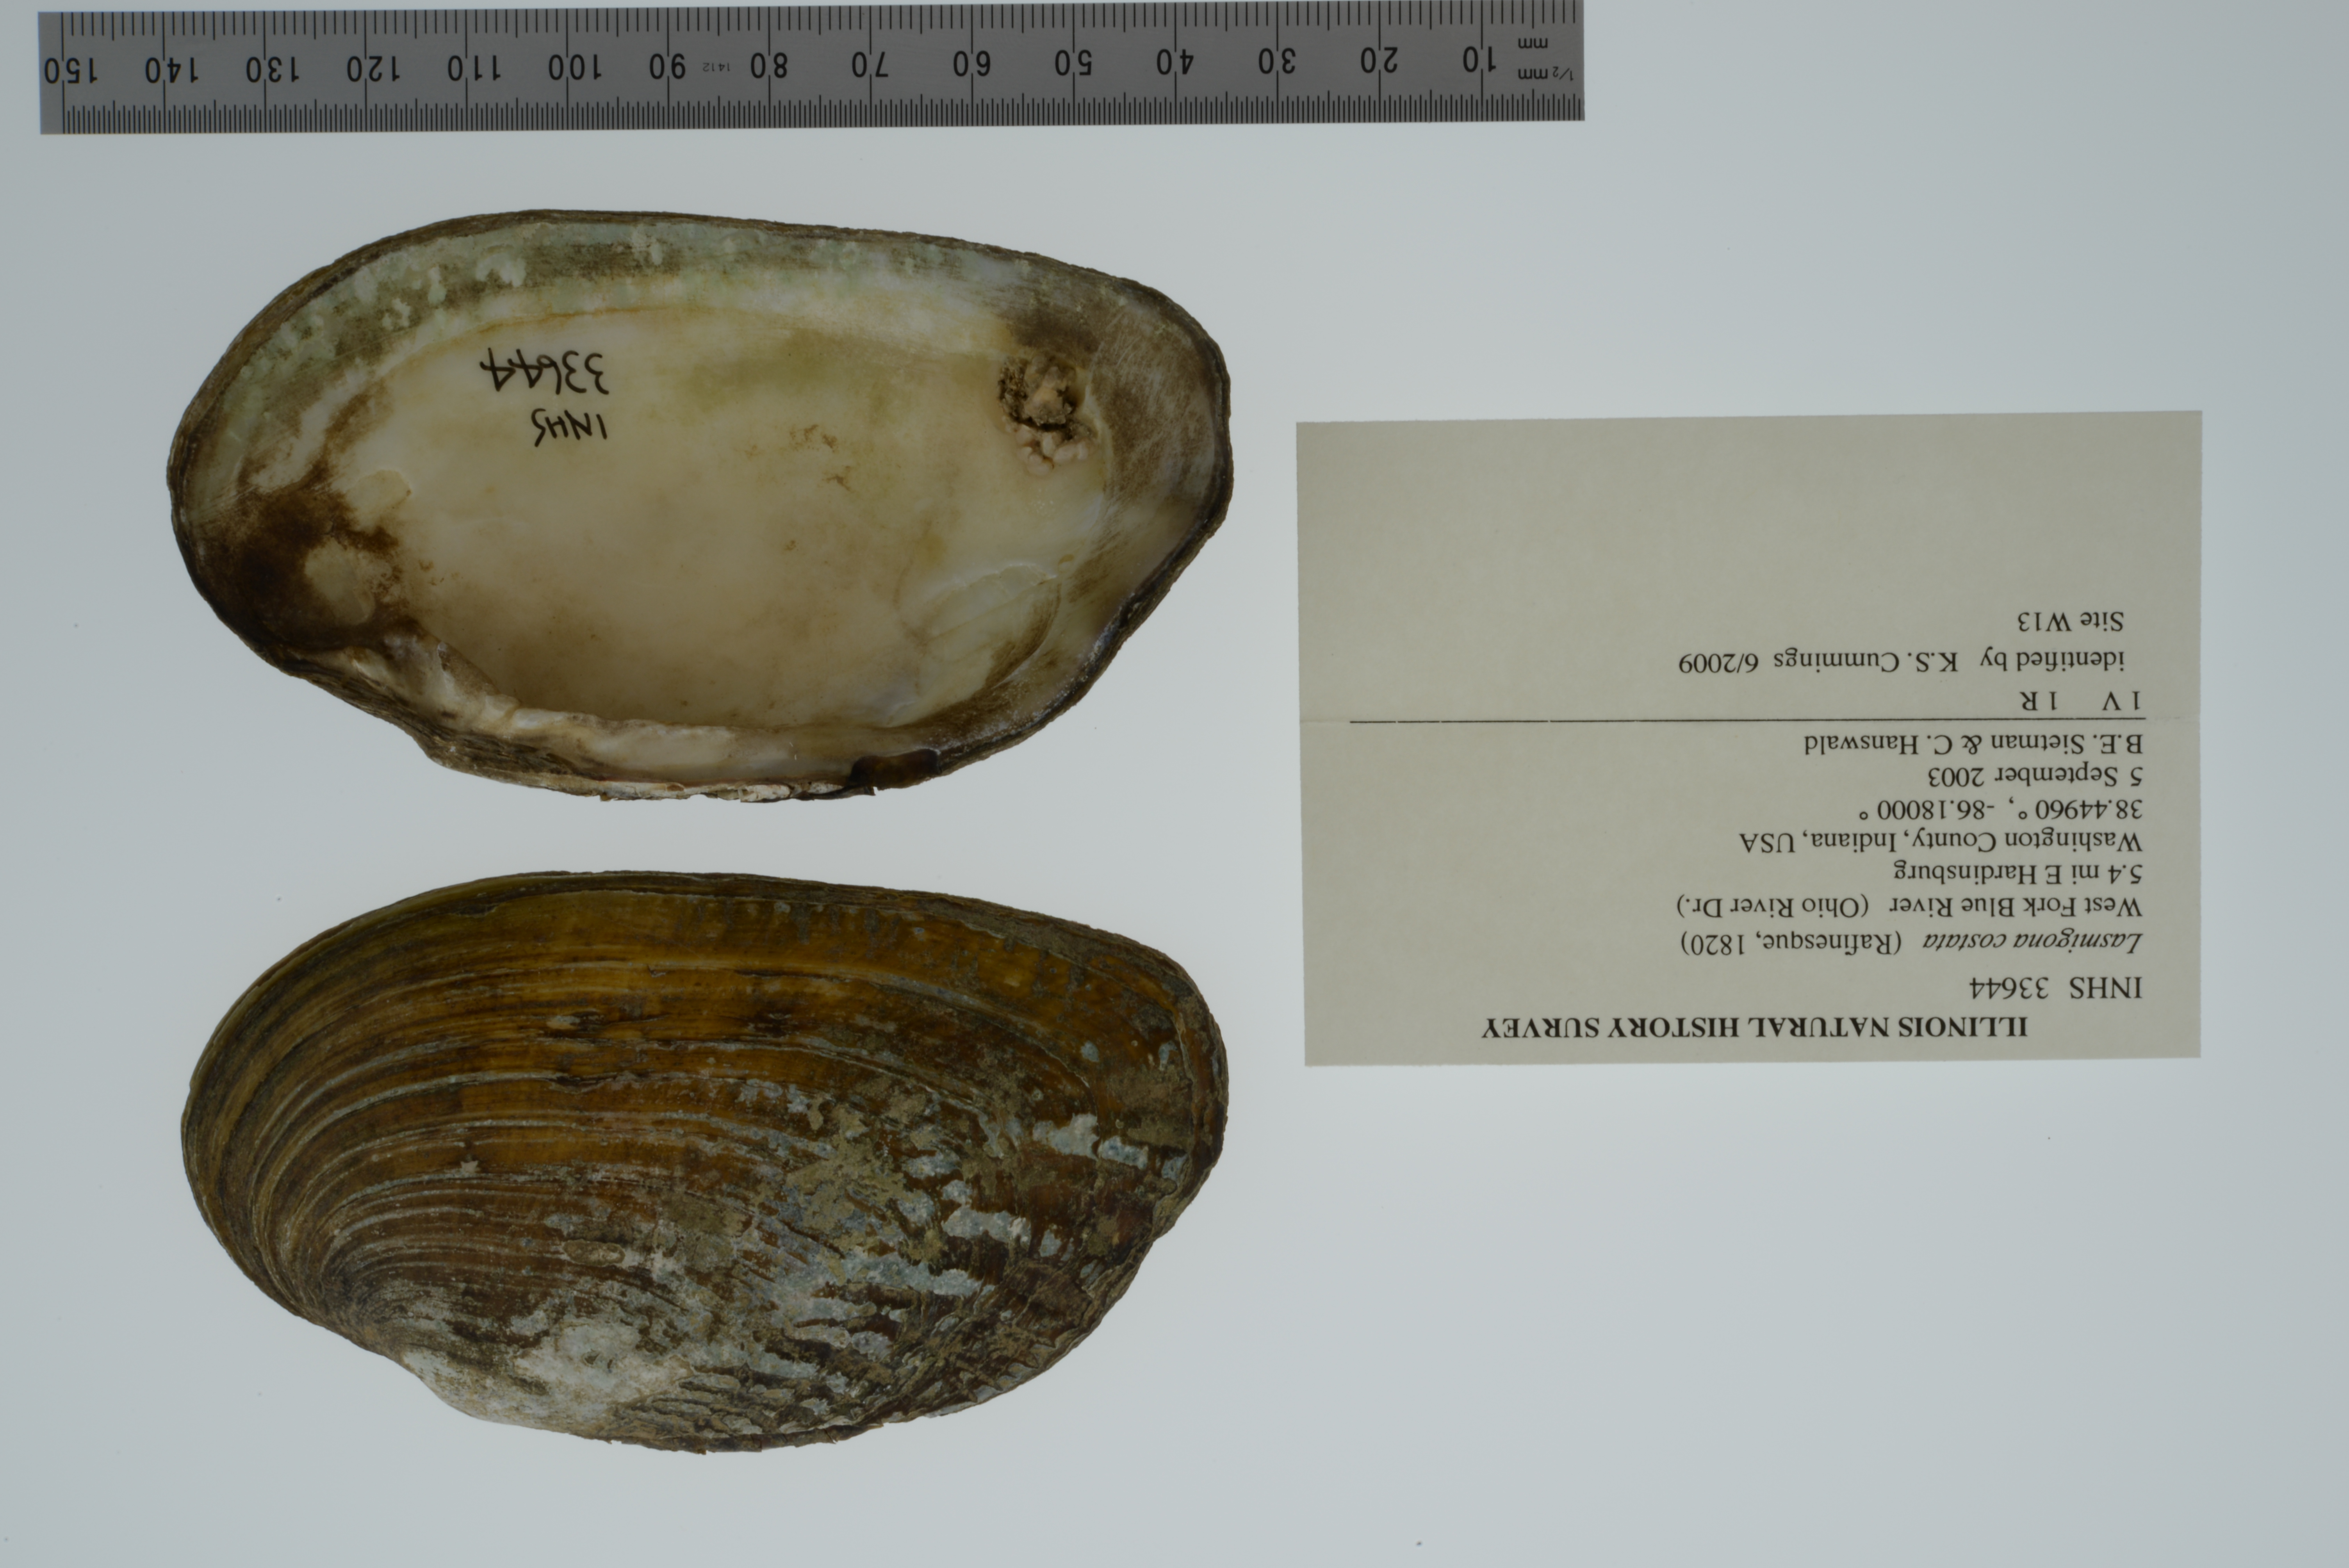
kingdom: Animalia
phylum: Mollusca
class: Bivalvia
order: Unionida
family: Unionidae
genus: Lasmigona
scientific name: Lasmigona costata
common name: Flutedshell
